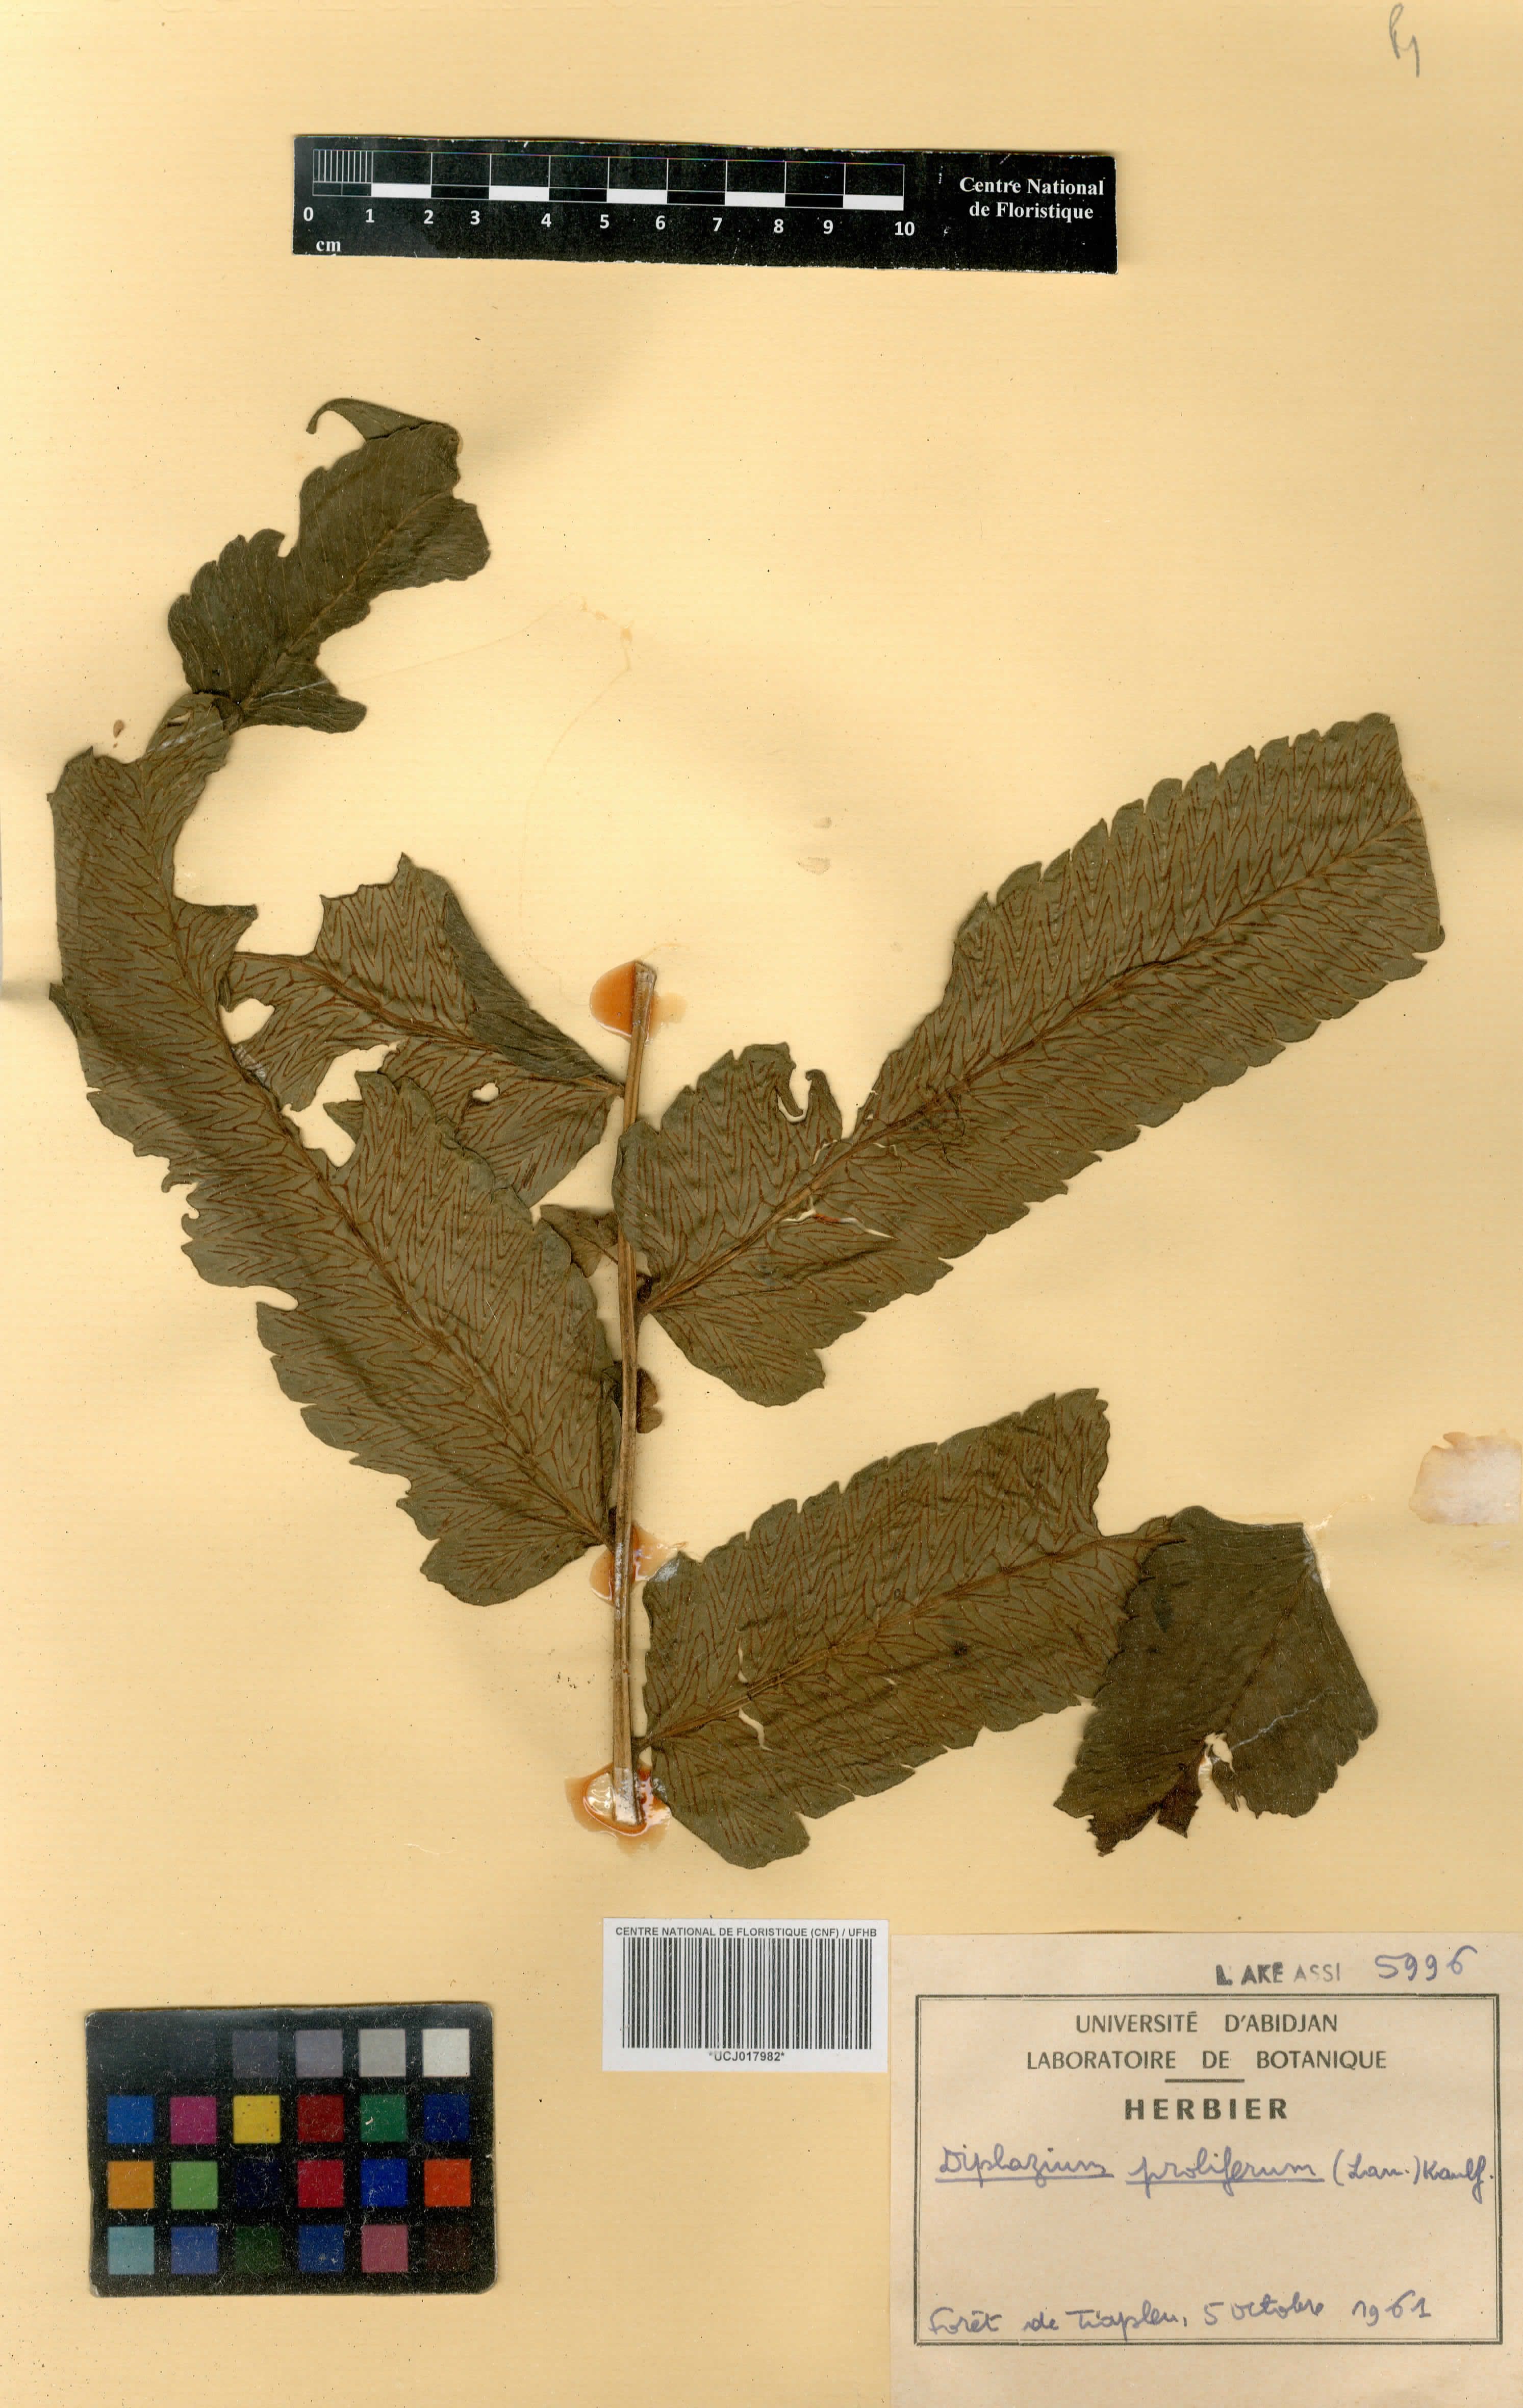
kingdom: Plantae
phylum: Tracheophyta
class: Polypodiopsida
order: Polypodiales
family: Athyriaceae
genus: Diplazium
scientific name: Diplazium proliferum
